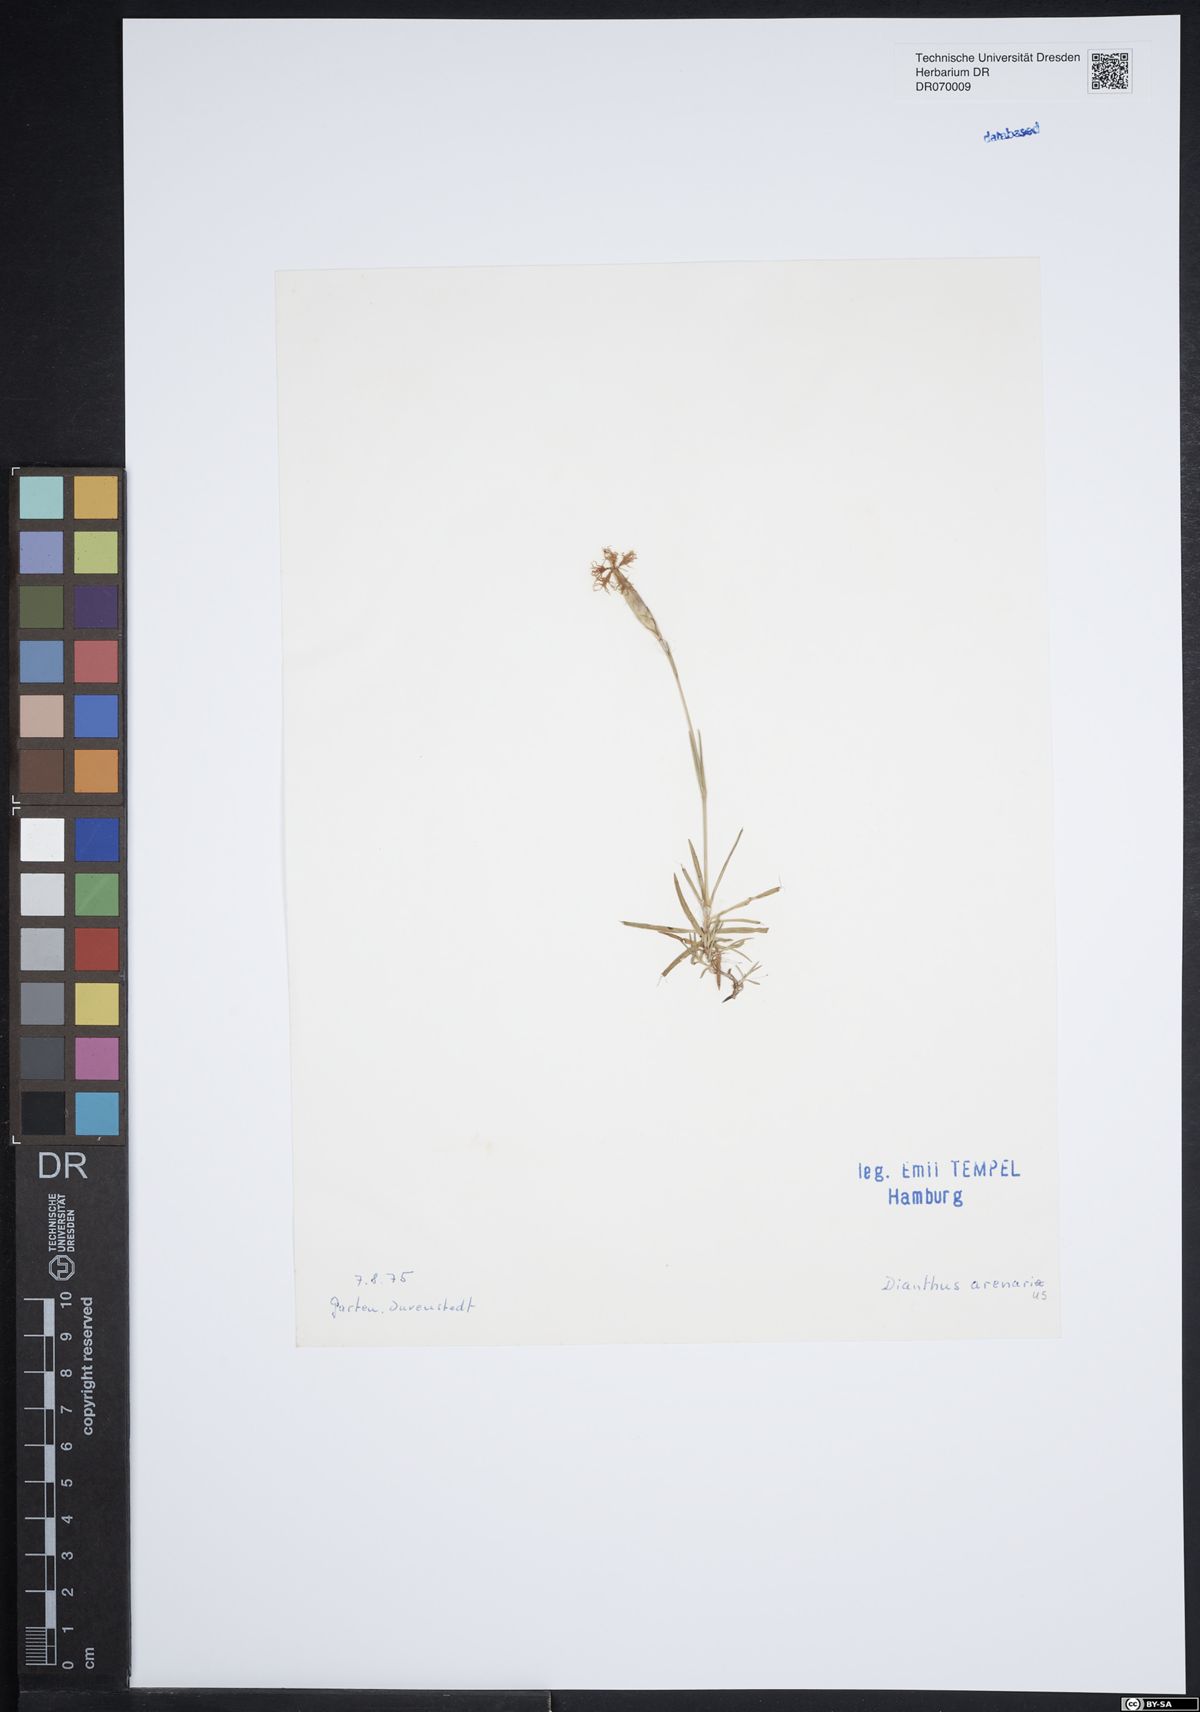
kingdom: Plantae
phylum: Tracheophyta
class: Magnoliopsida
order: Caryophyllales
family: Caryophyllaceae
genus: Dianthus
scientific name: Dianthus arenarius
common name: Stone pink
